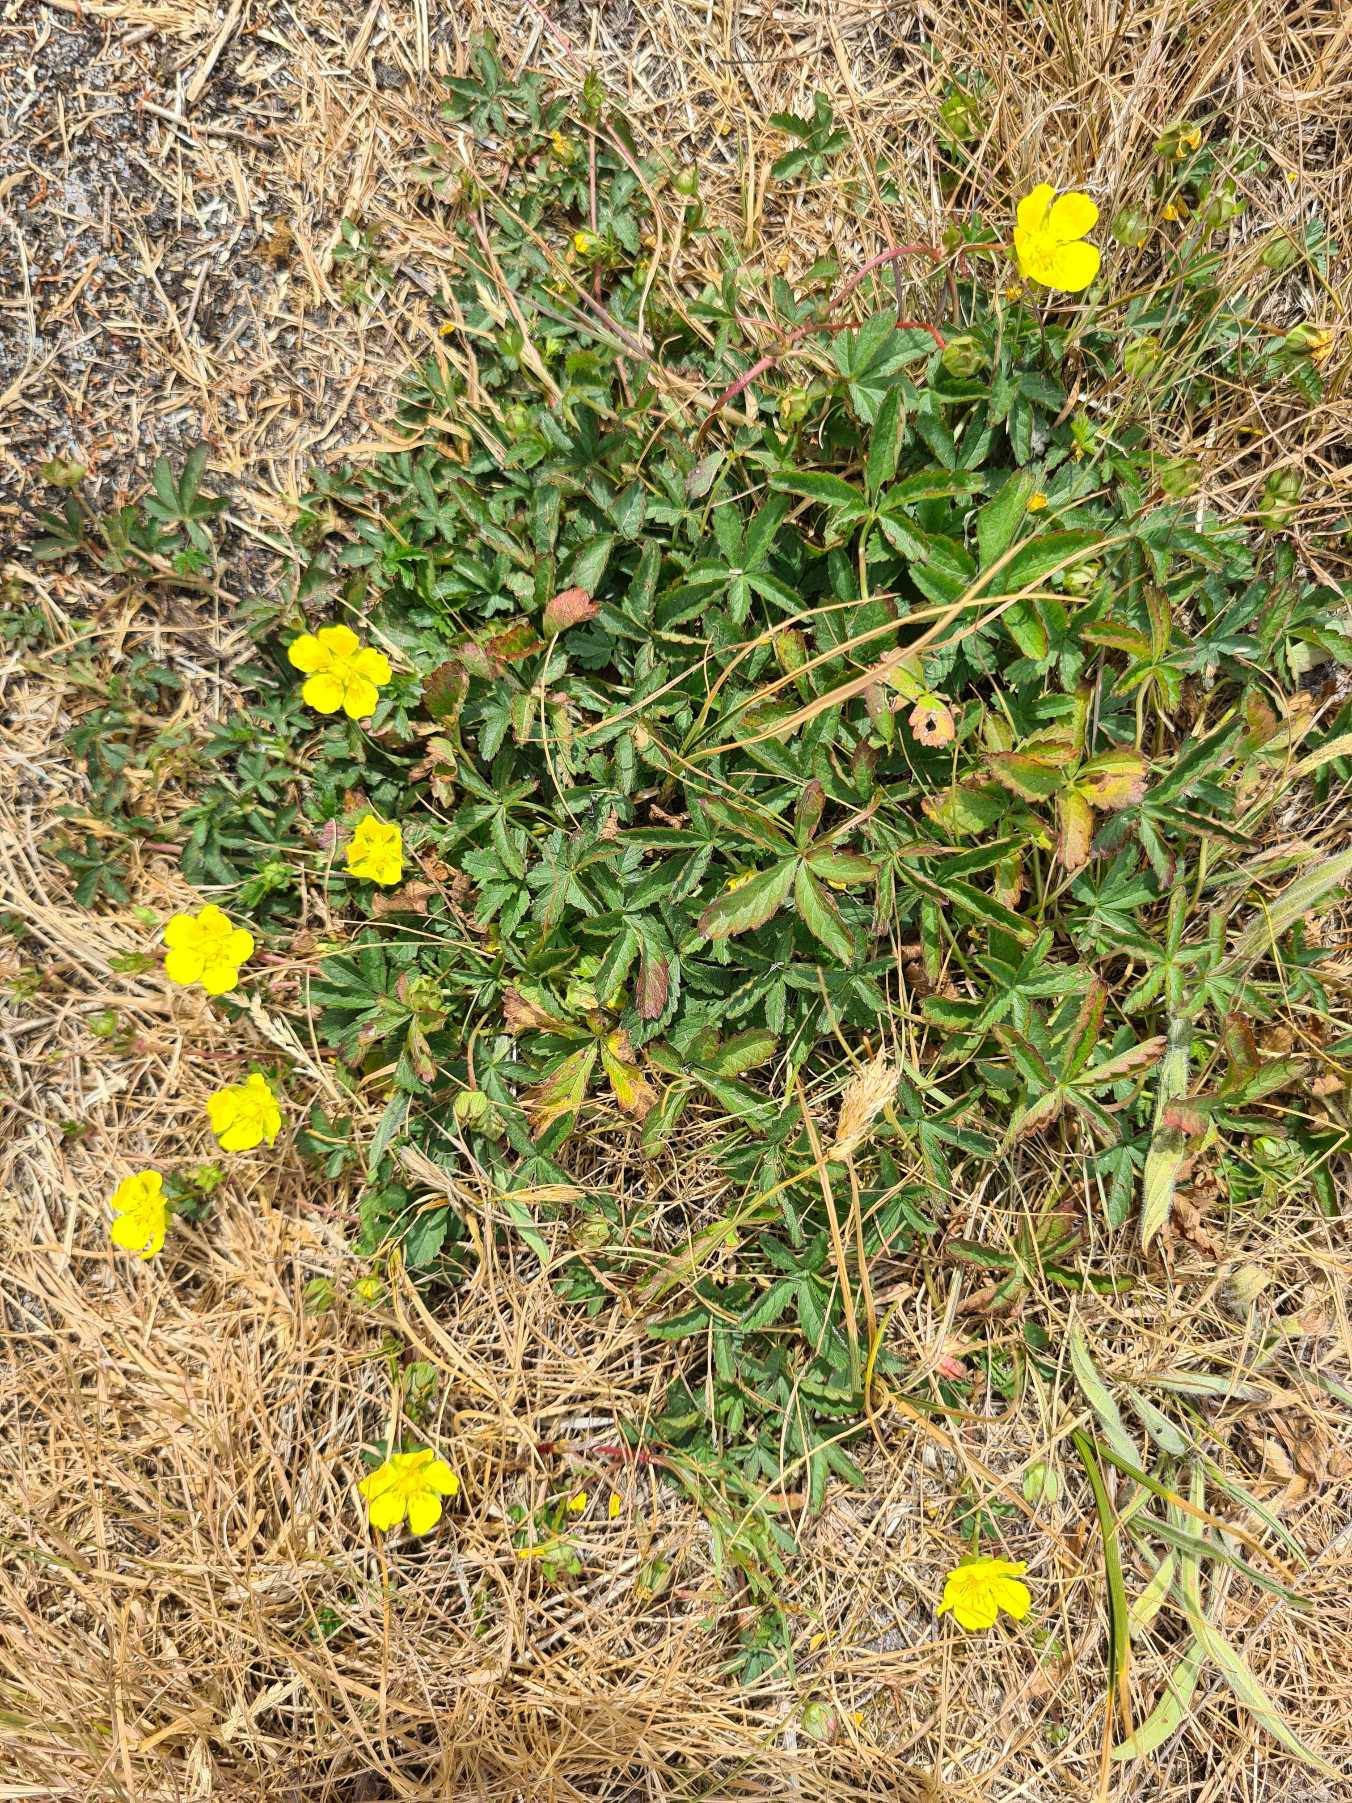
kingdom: Plantae
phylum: Tracheophyta
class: Magnoliopsida
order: Rosales
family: Rosaceae
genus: Potentilla
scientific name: Potentilla reptans
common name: Krybende potentil
